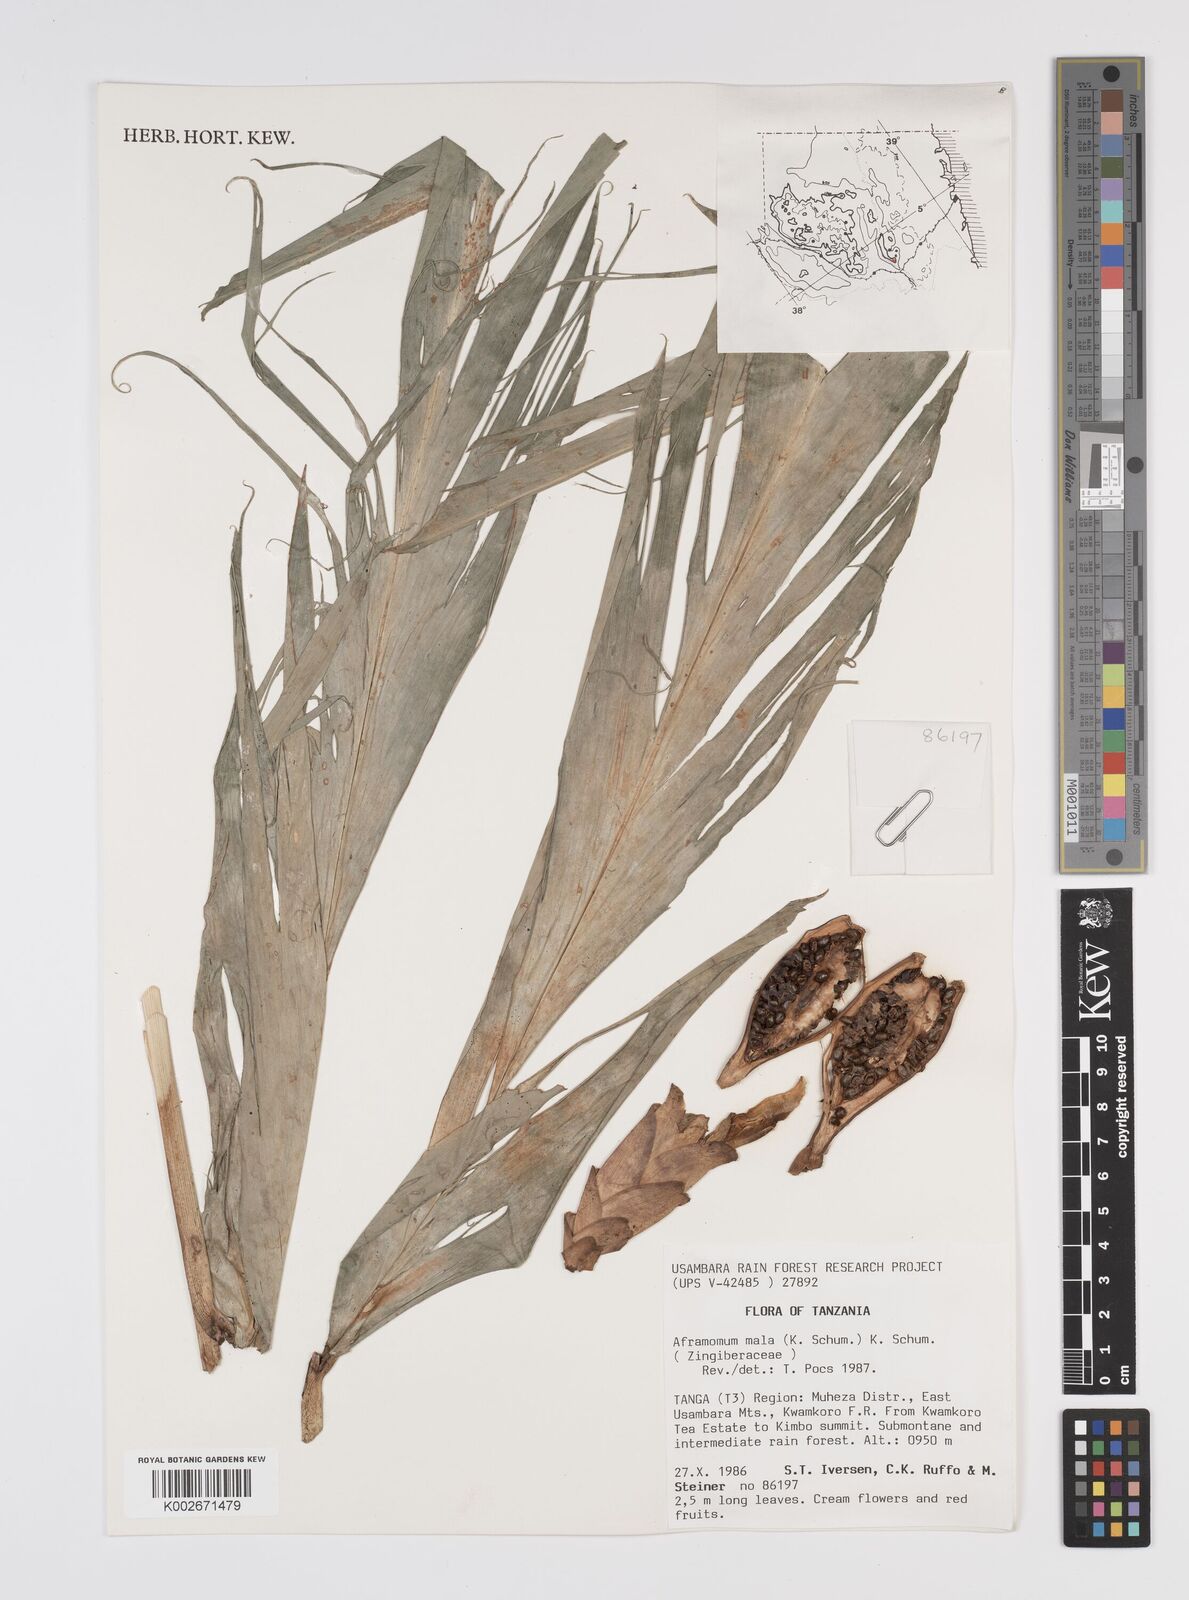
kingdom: Plantae
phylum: Tracheophyta
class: Liliopsida
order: Zingiberales
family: Zingiberaceae
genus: Aframomum
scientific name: Aframomum mala
